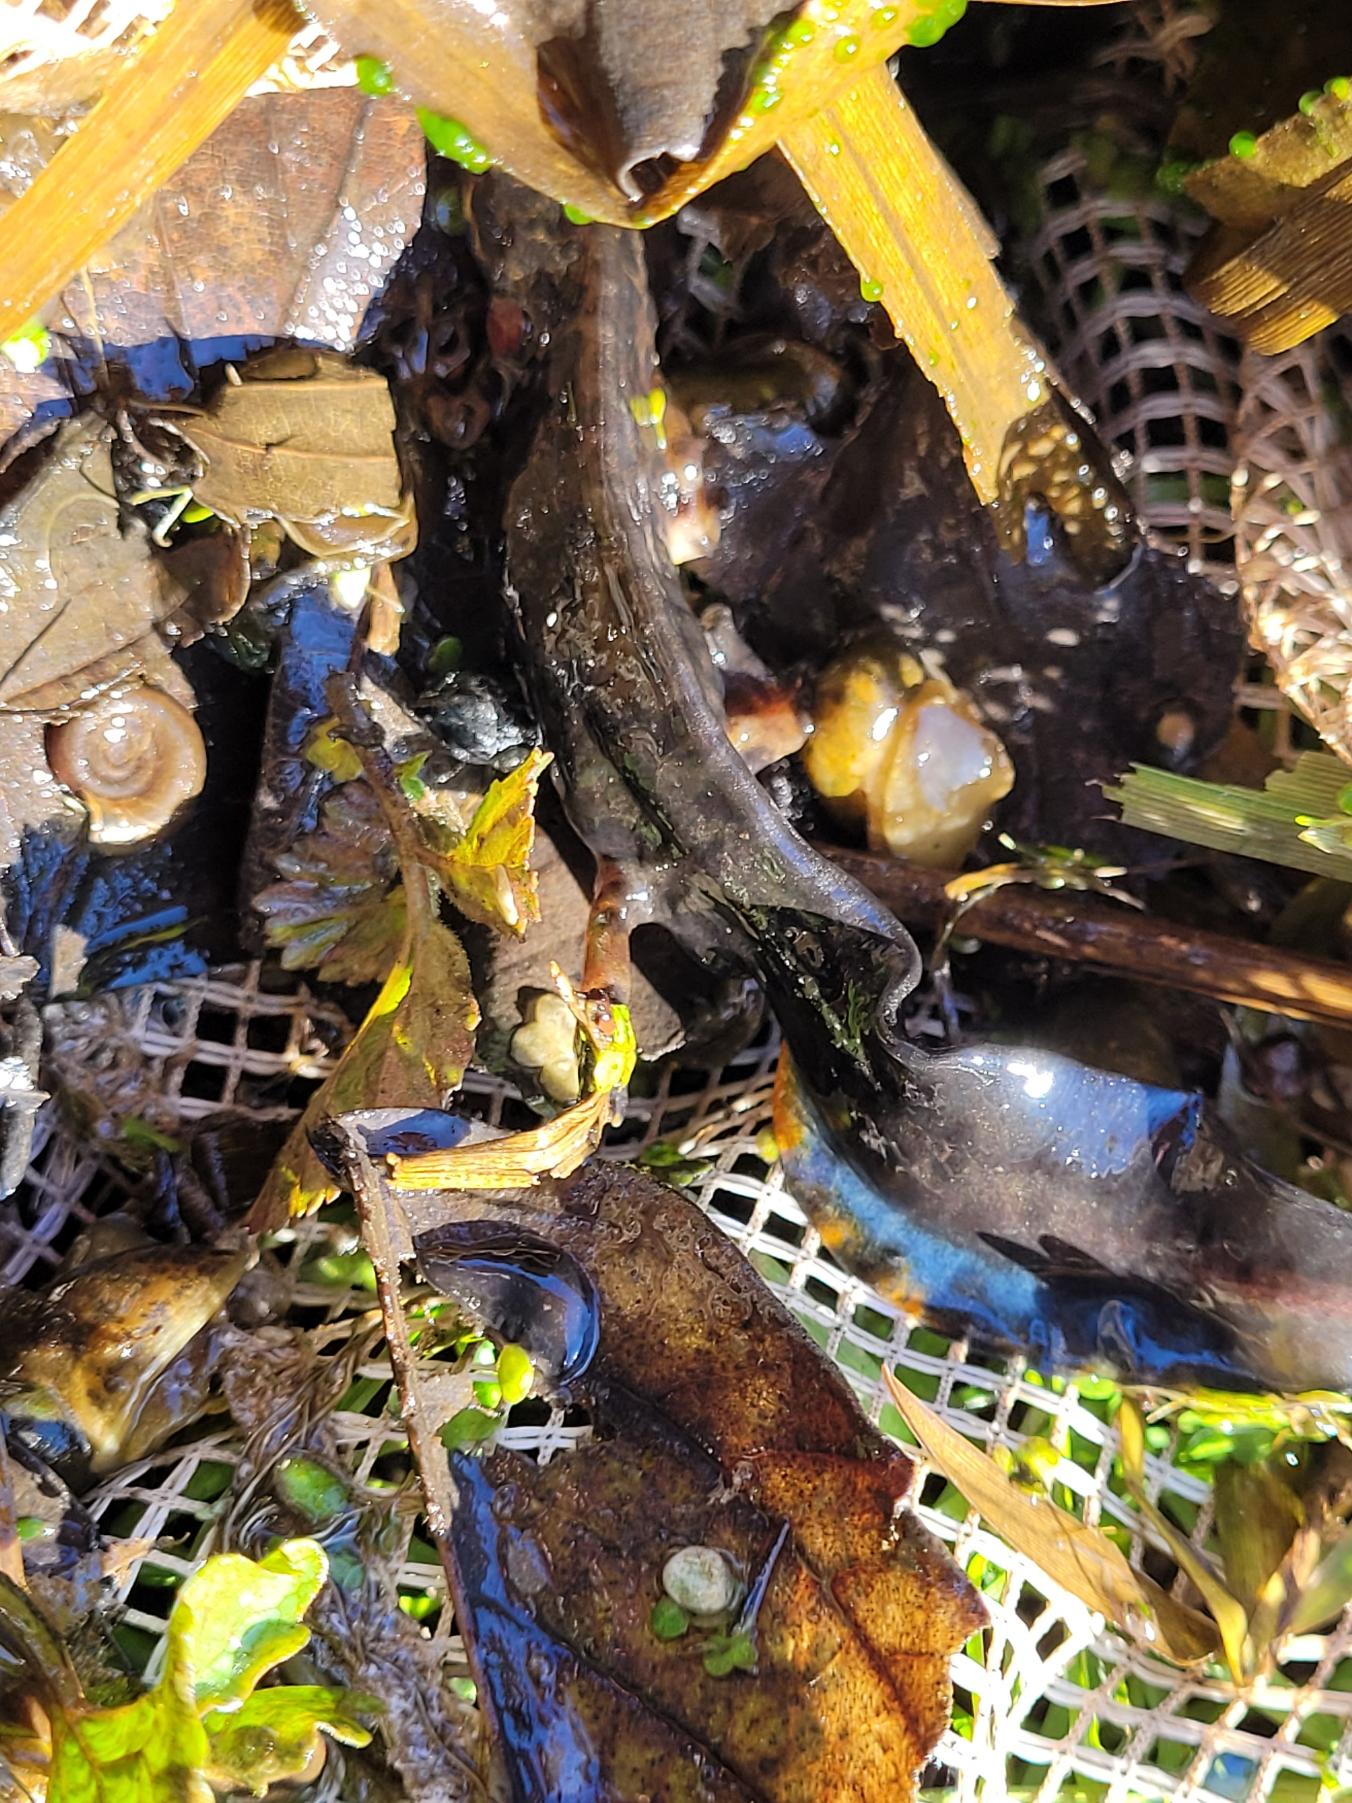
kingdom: Animalia
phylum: Chordata
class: Amphibia
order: Caudata
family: Salamandridae
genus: Lissotriton
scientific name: Lissotriton vulgaris
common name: Lille vandsalamander
